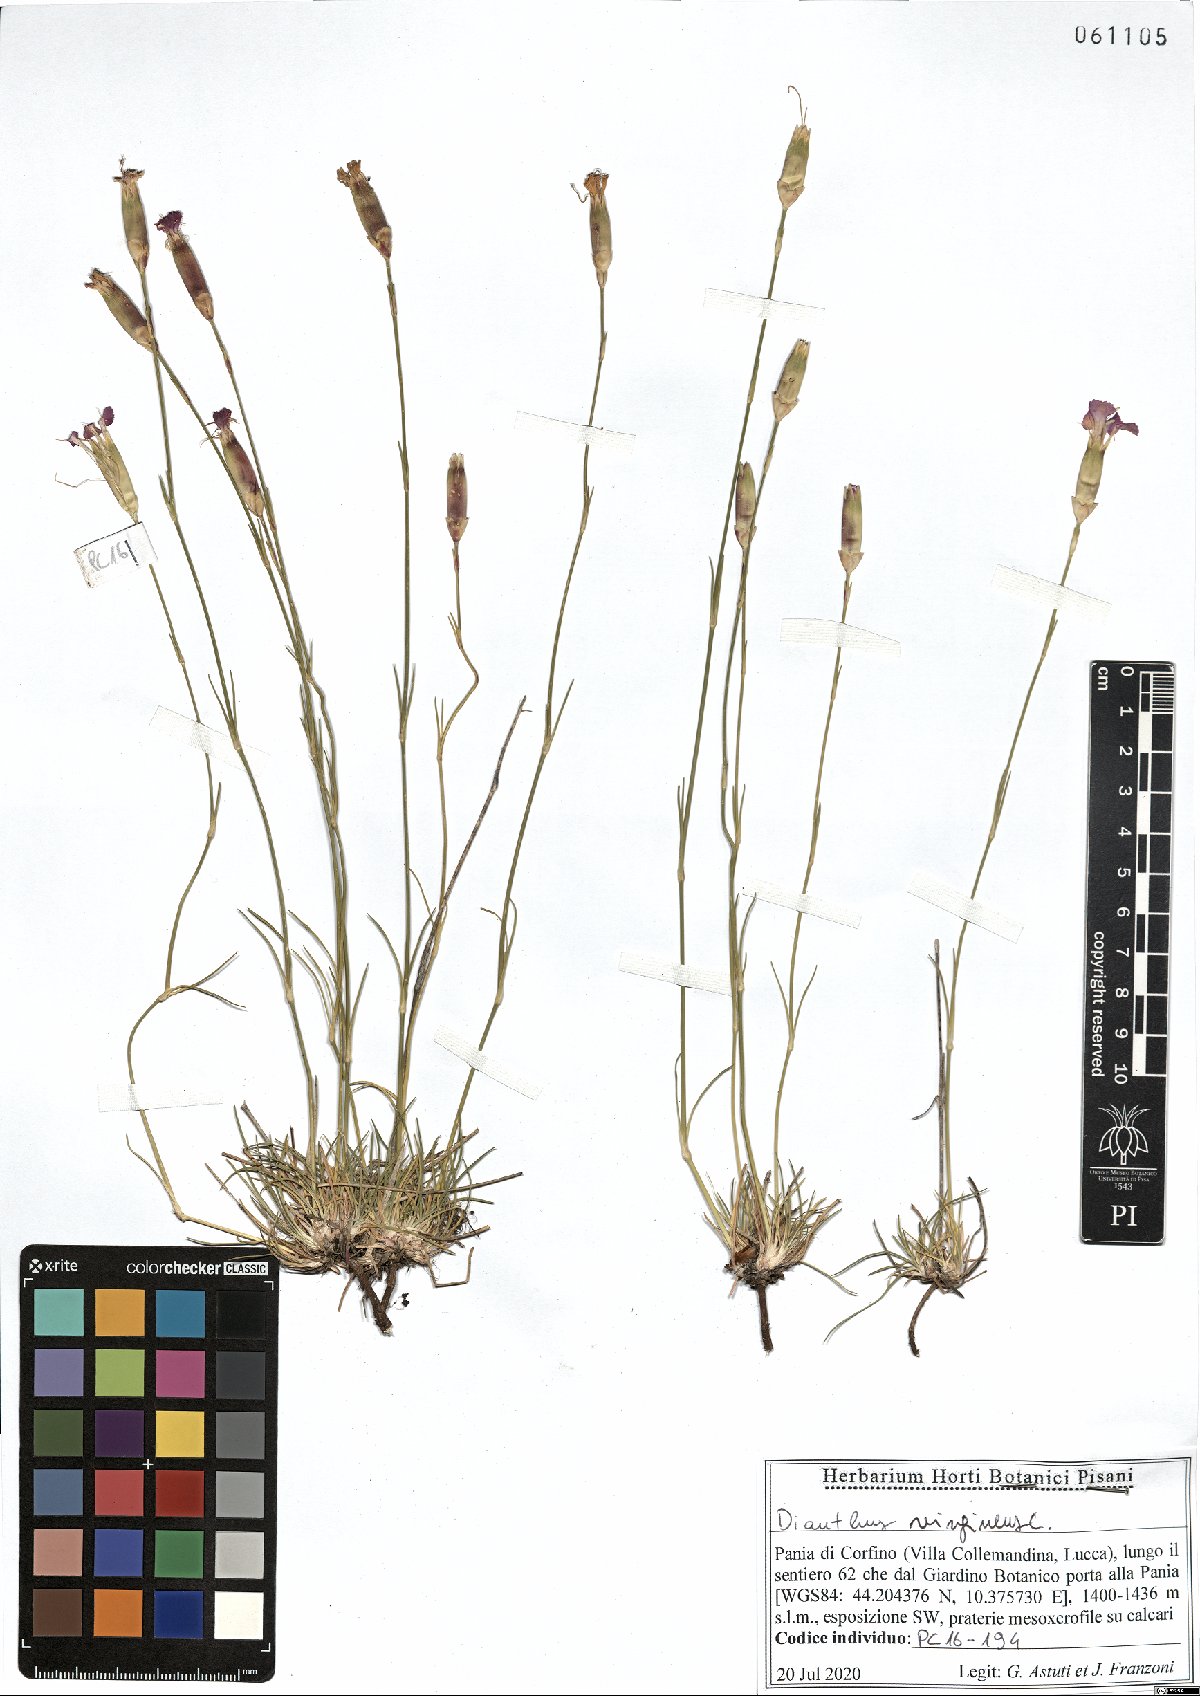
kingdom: Plantae
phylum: Tracheophyta
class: Magnoliopsida
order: Caryophyllales
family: Caryophyllaceae
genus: Dianthus
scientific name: Dianthus virgineus
